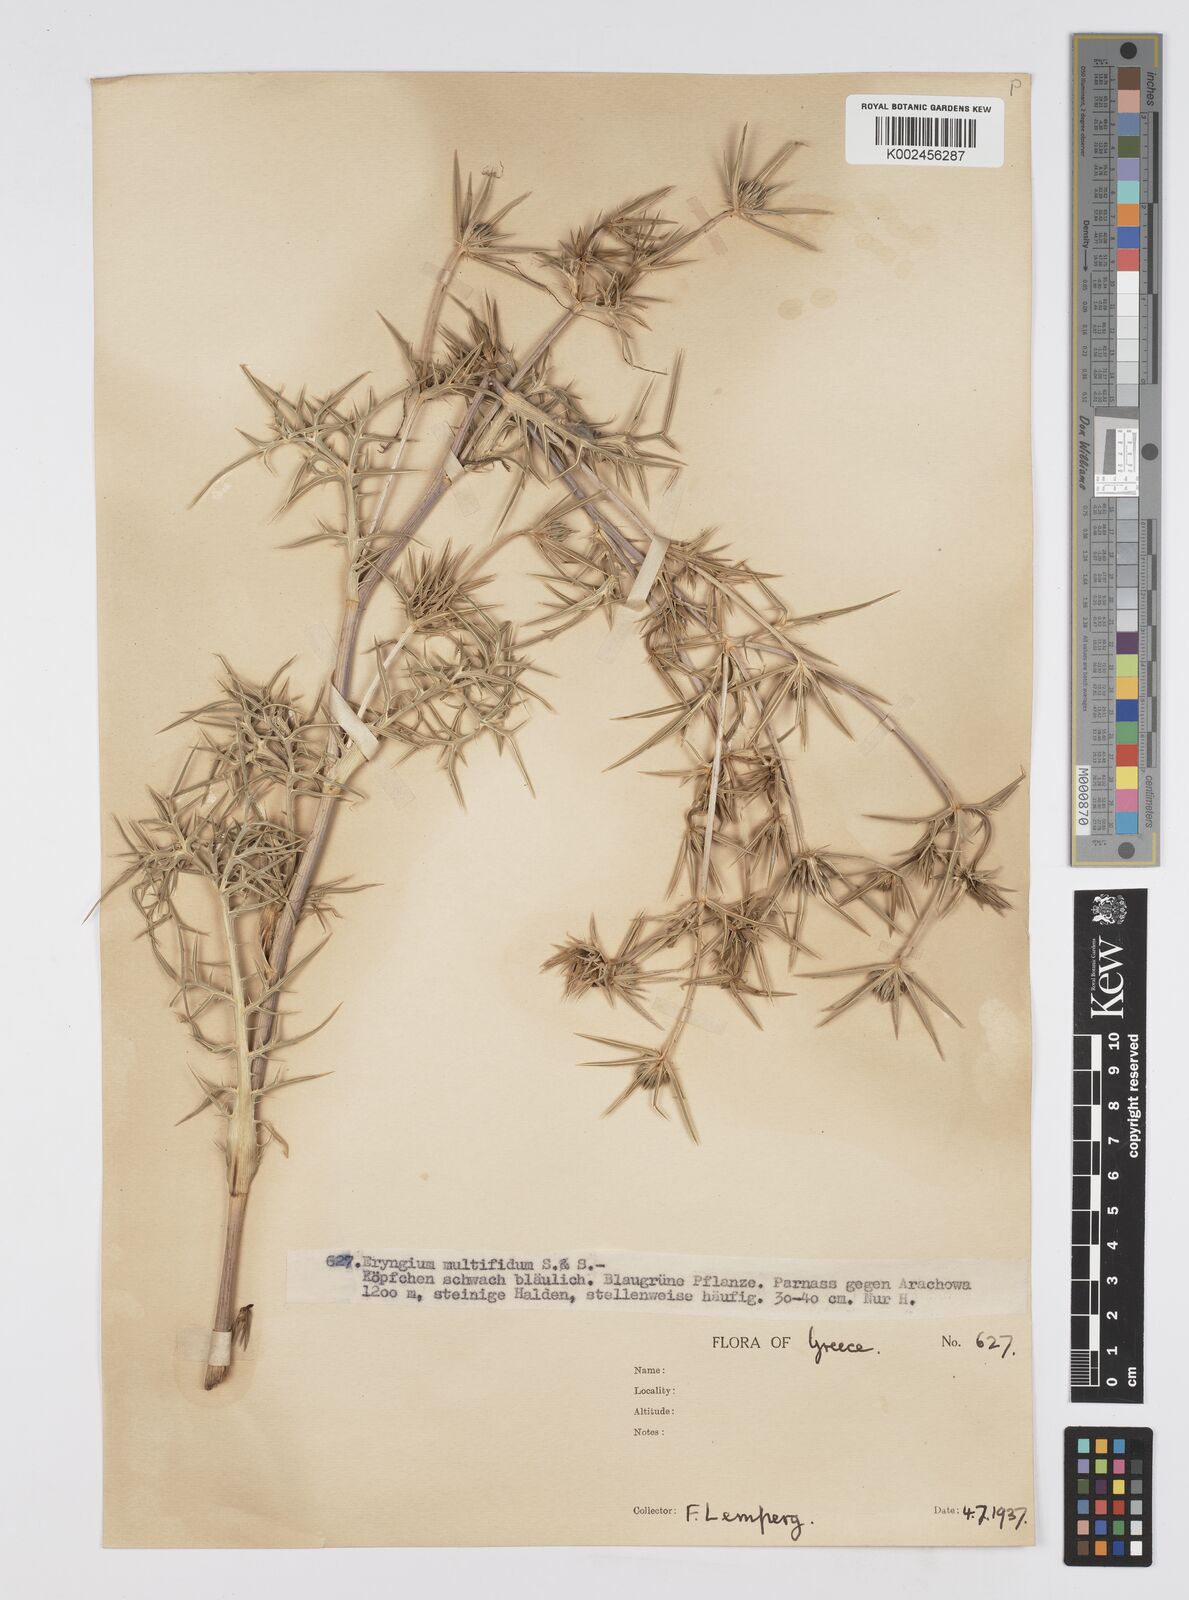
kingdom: Plantae
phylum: Tracheophyta
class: Magnoliopsida
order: Apiales
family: Apiaceae
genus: Eryngium
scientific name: Eryngium amethystinum
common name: Amethyst eryngo
